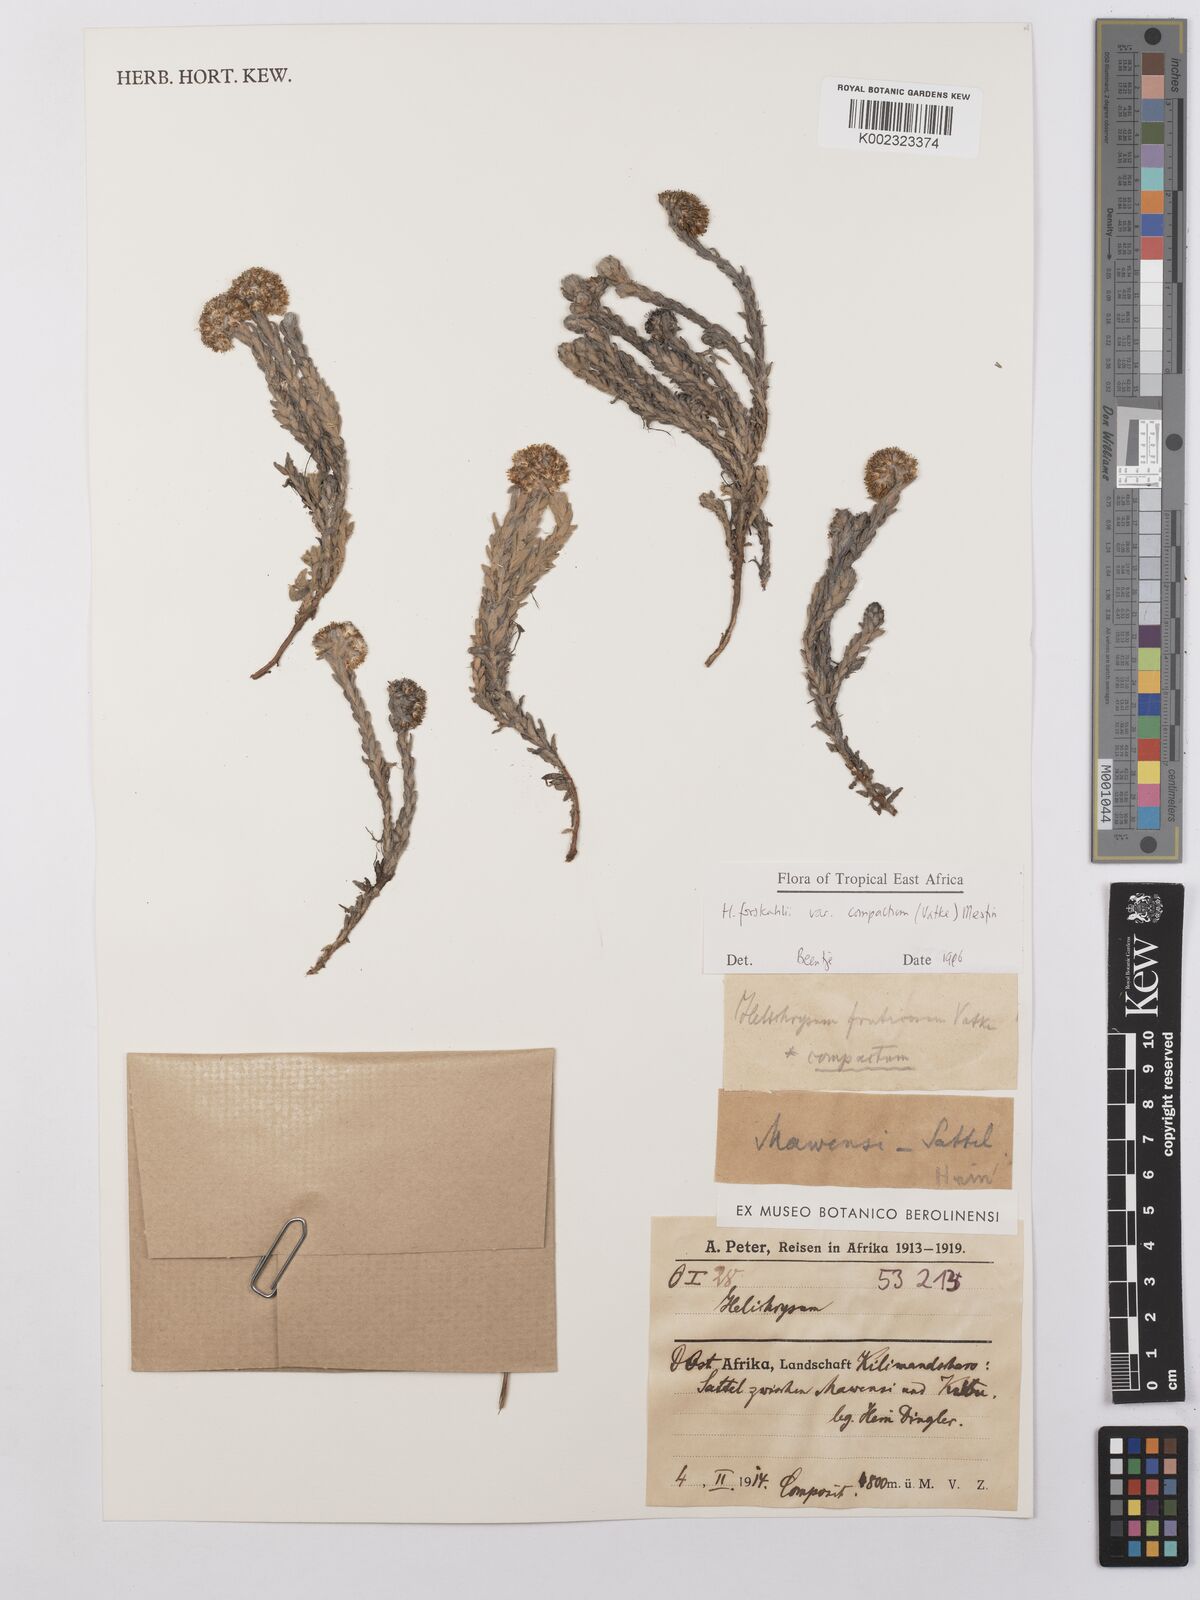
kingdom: Plantae
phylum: Tracheophyta
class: Magnoliopsida
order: Asterales
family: Asteraceae
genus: Helichrysum
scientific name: Helichrysum forskahlii
